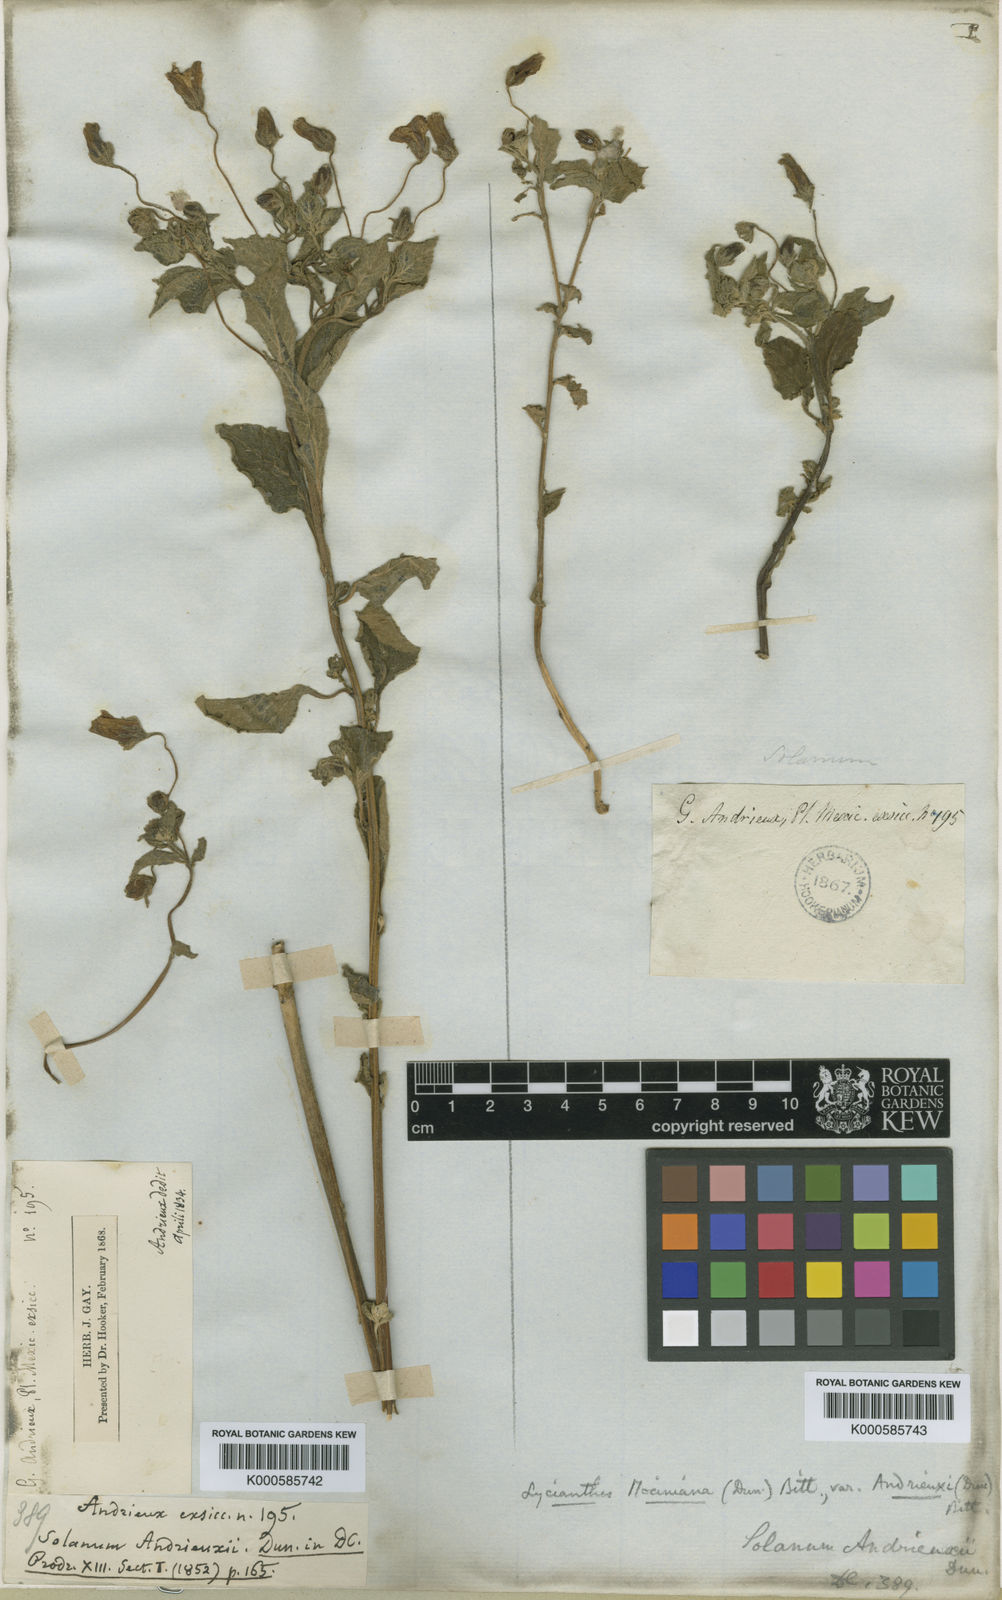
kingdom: Plantae
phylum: Tracheophyta
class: Magnoliopsida
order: Solanales
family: Solanaceae
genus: Lycianthes
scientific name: Lycianthes
